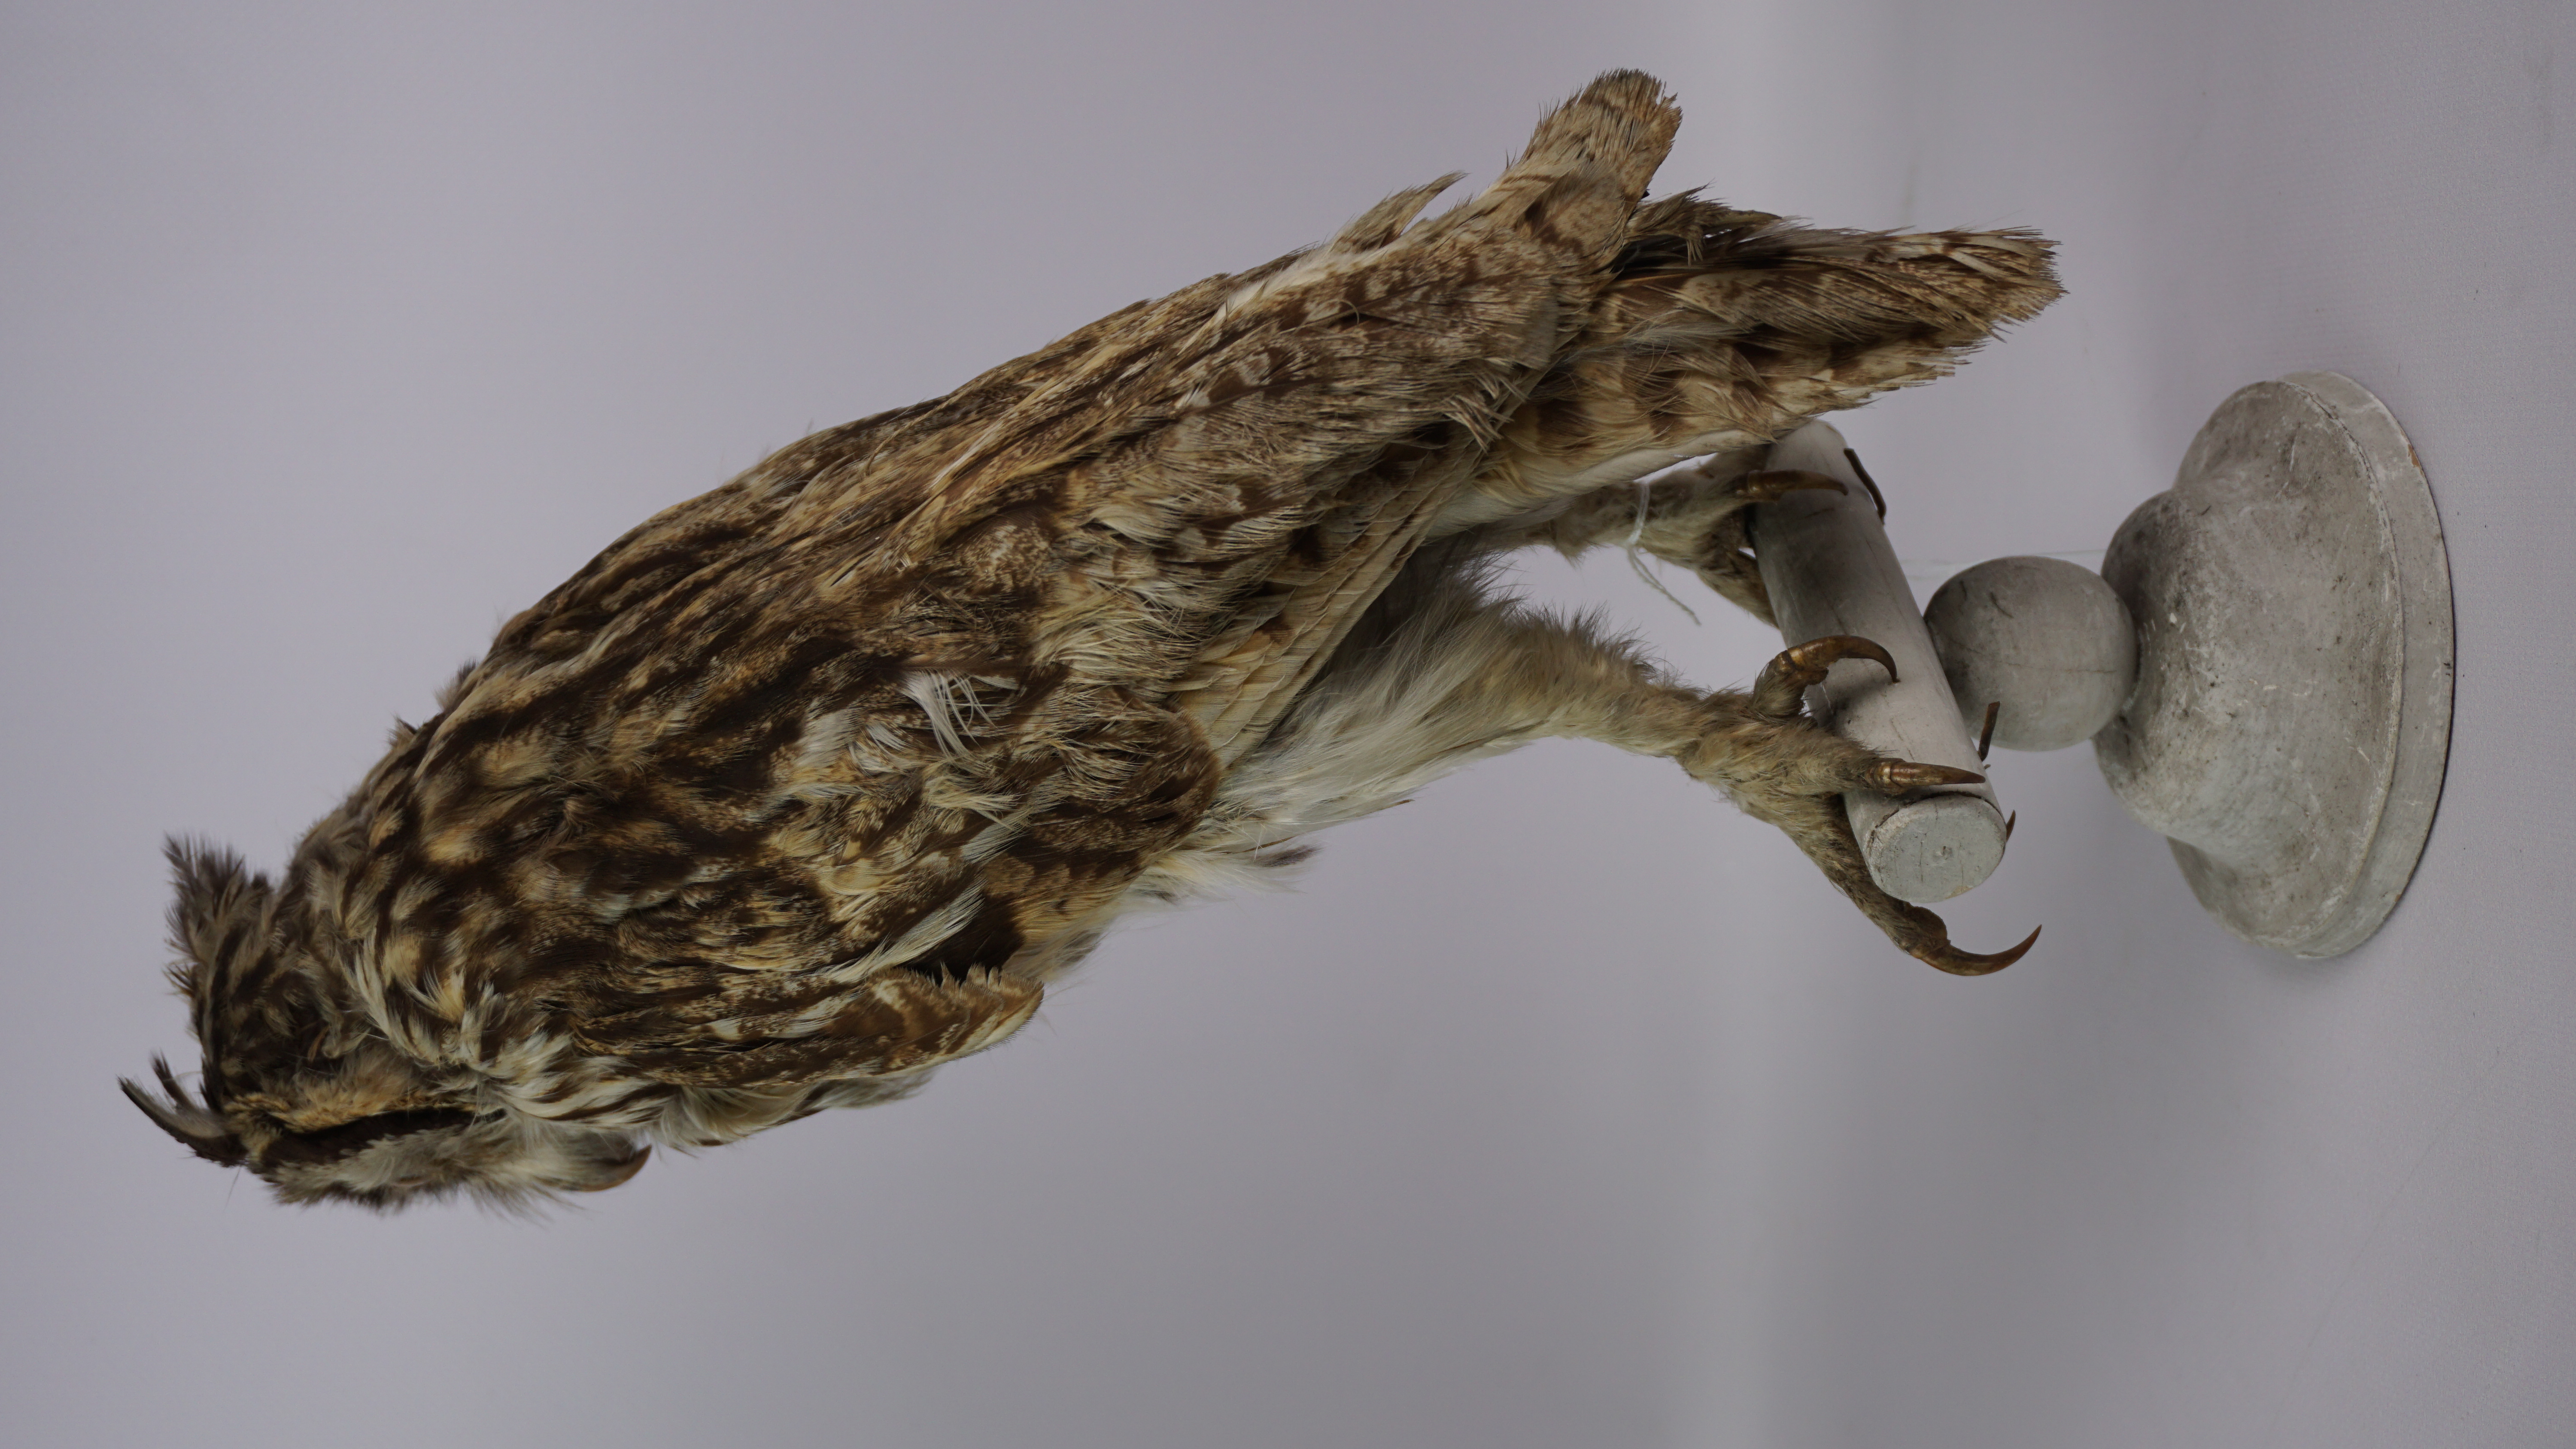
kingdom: Animalia
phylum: Chordata
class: Aves
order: Strigiformes
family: Strigidae
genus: Pseudoscops
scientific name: Pseudoscops clamator
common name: Striped owl
